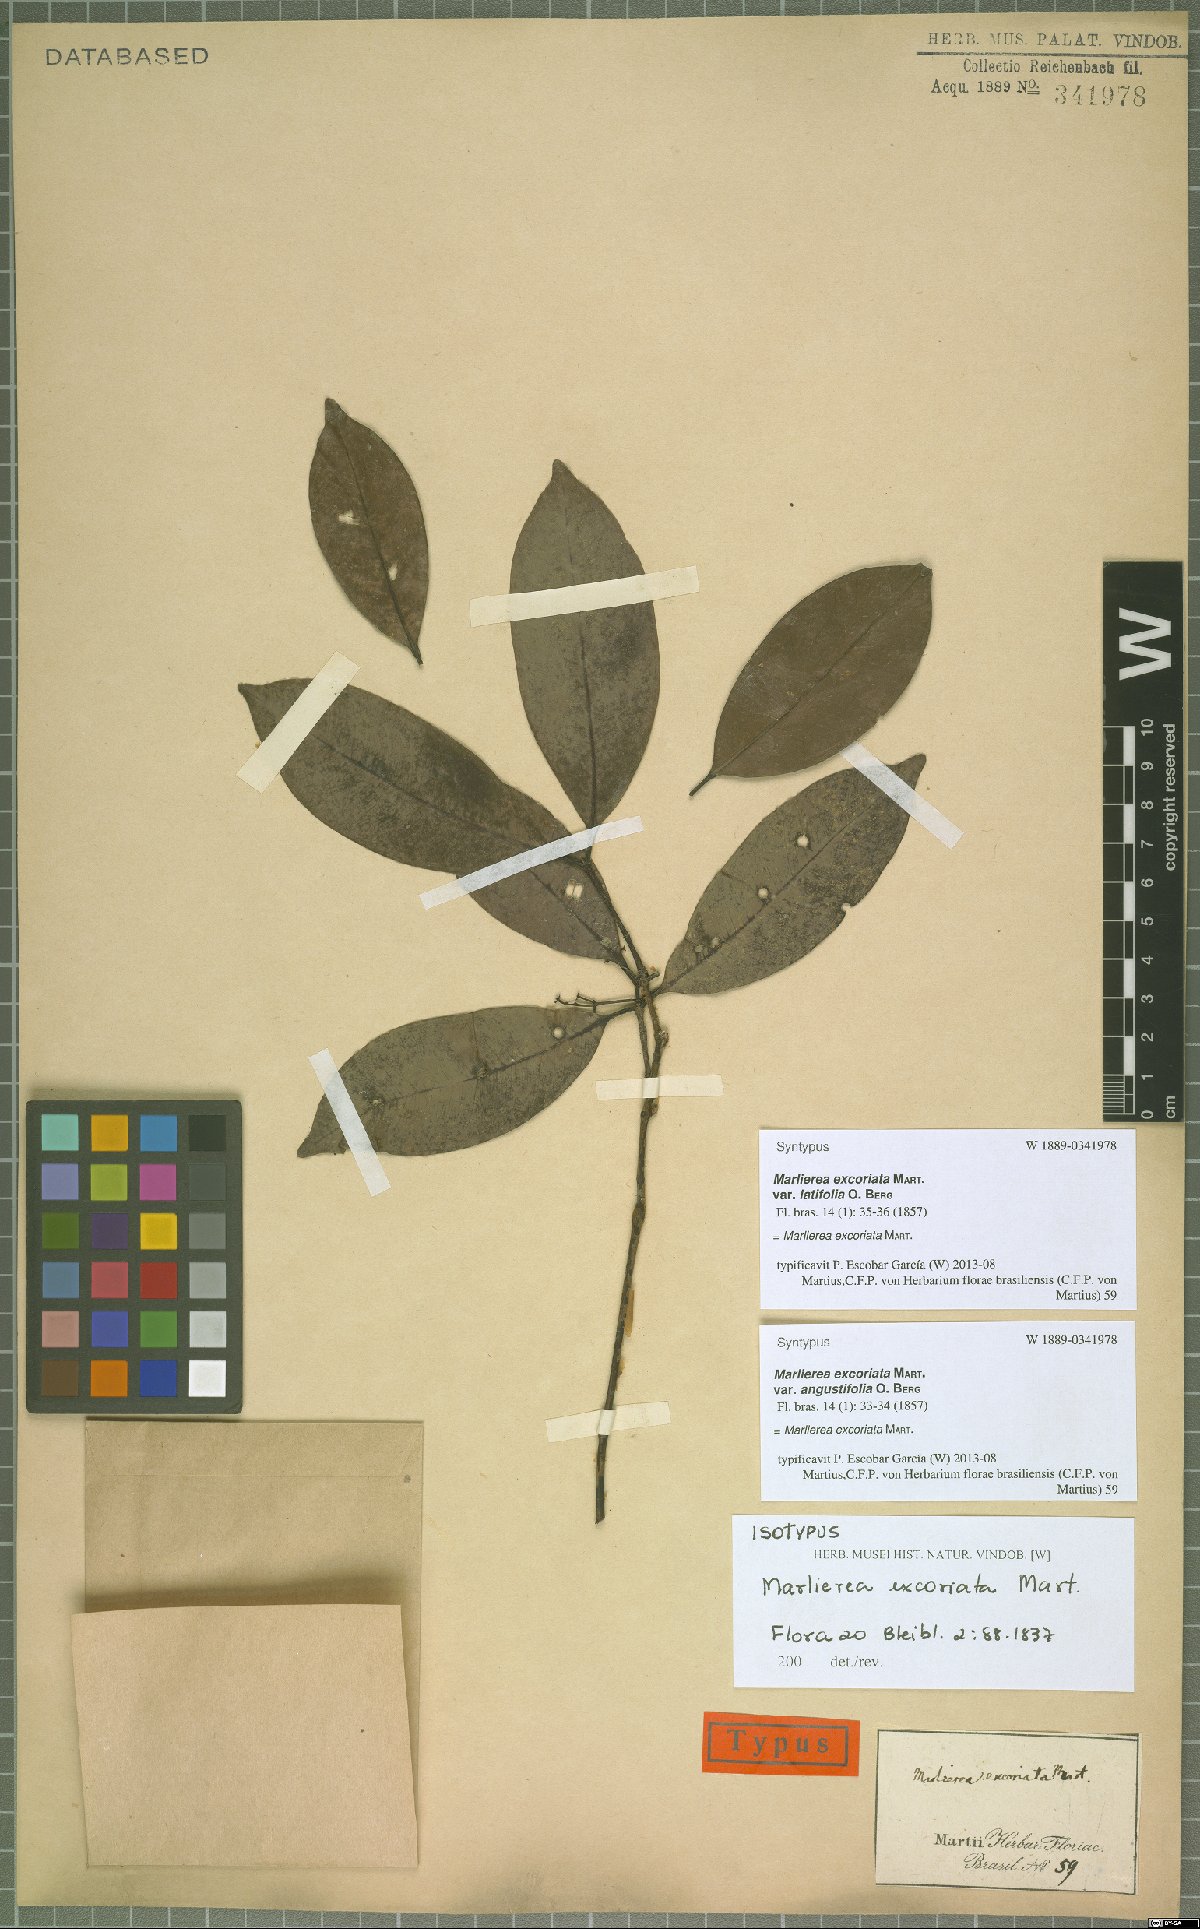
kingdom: Plantae
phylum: Tracheophyta
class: Magnoliopsida
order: Myrtales
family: Myrtaceae
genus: Myrcia
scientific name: Myrcia excoriata
